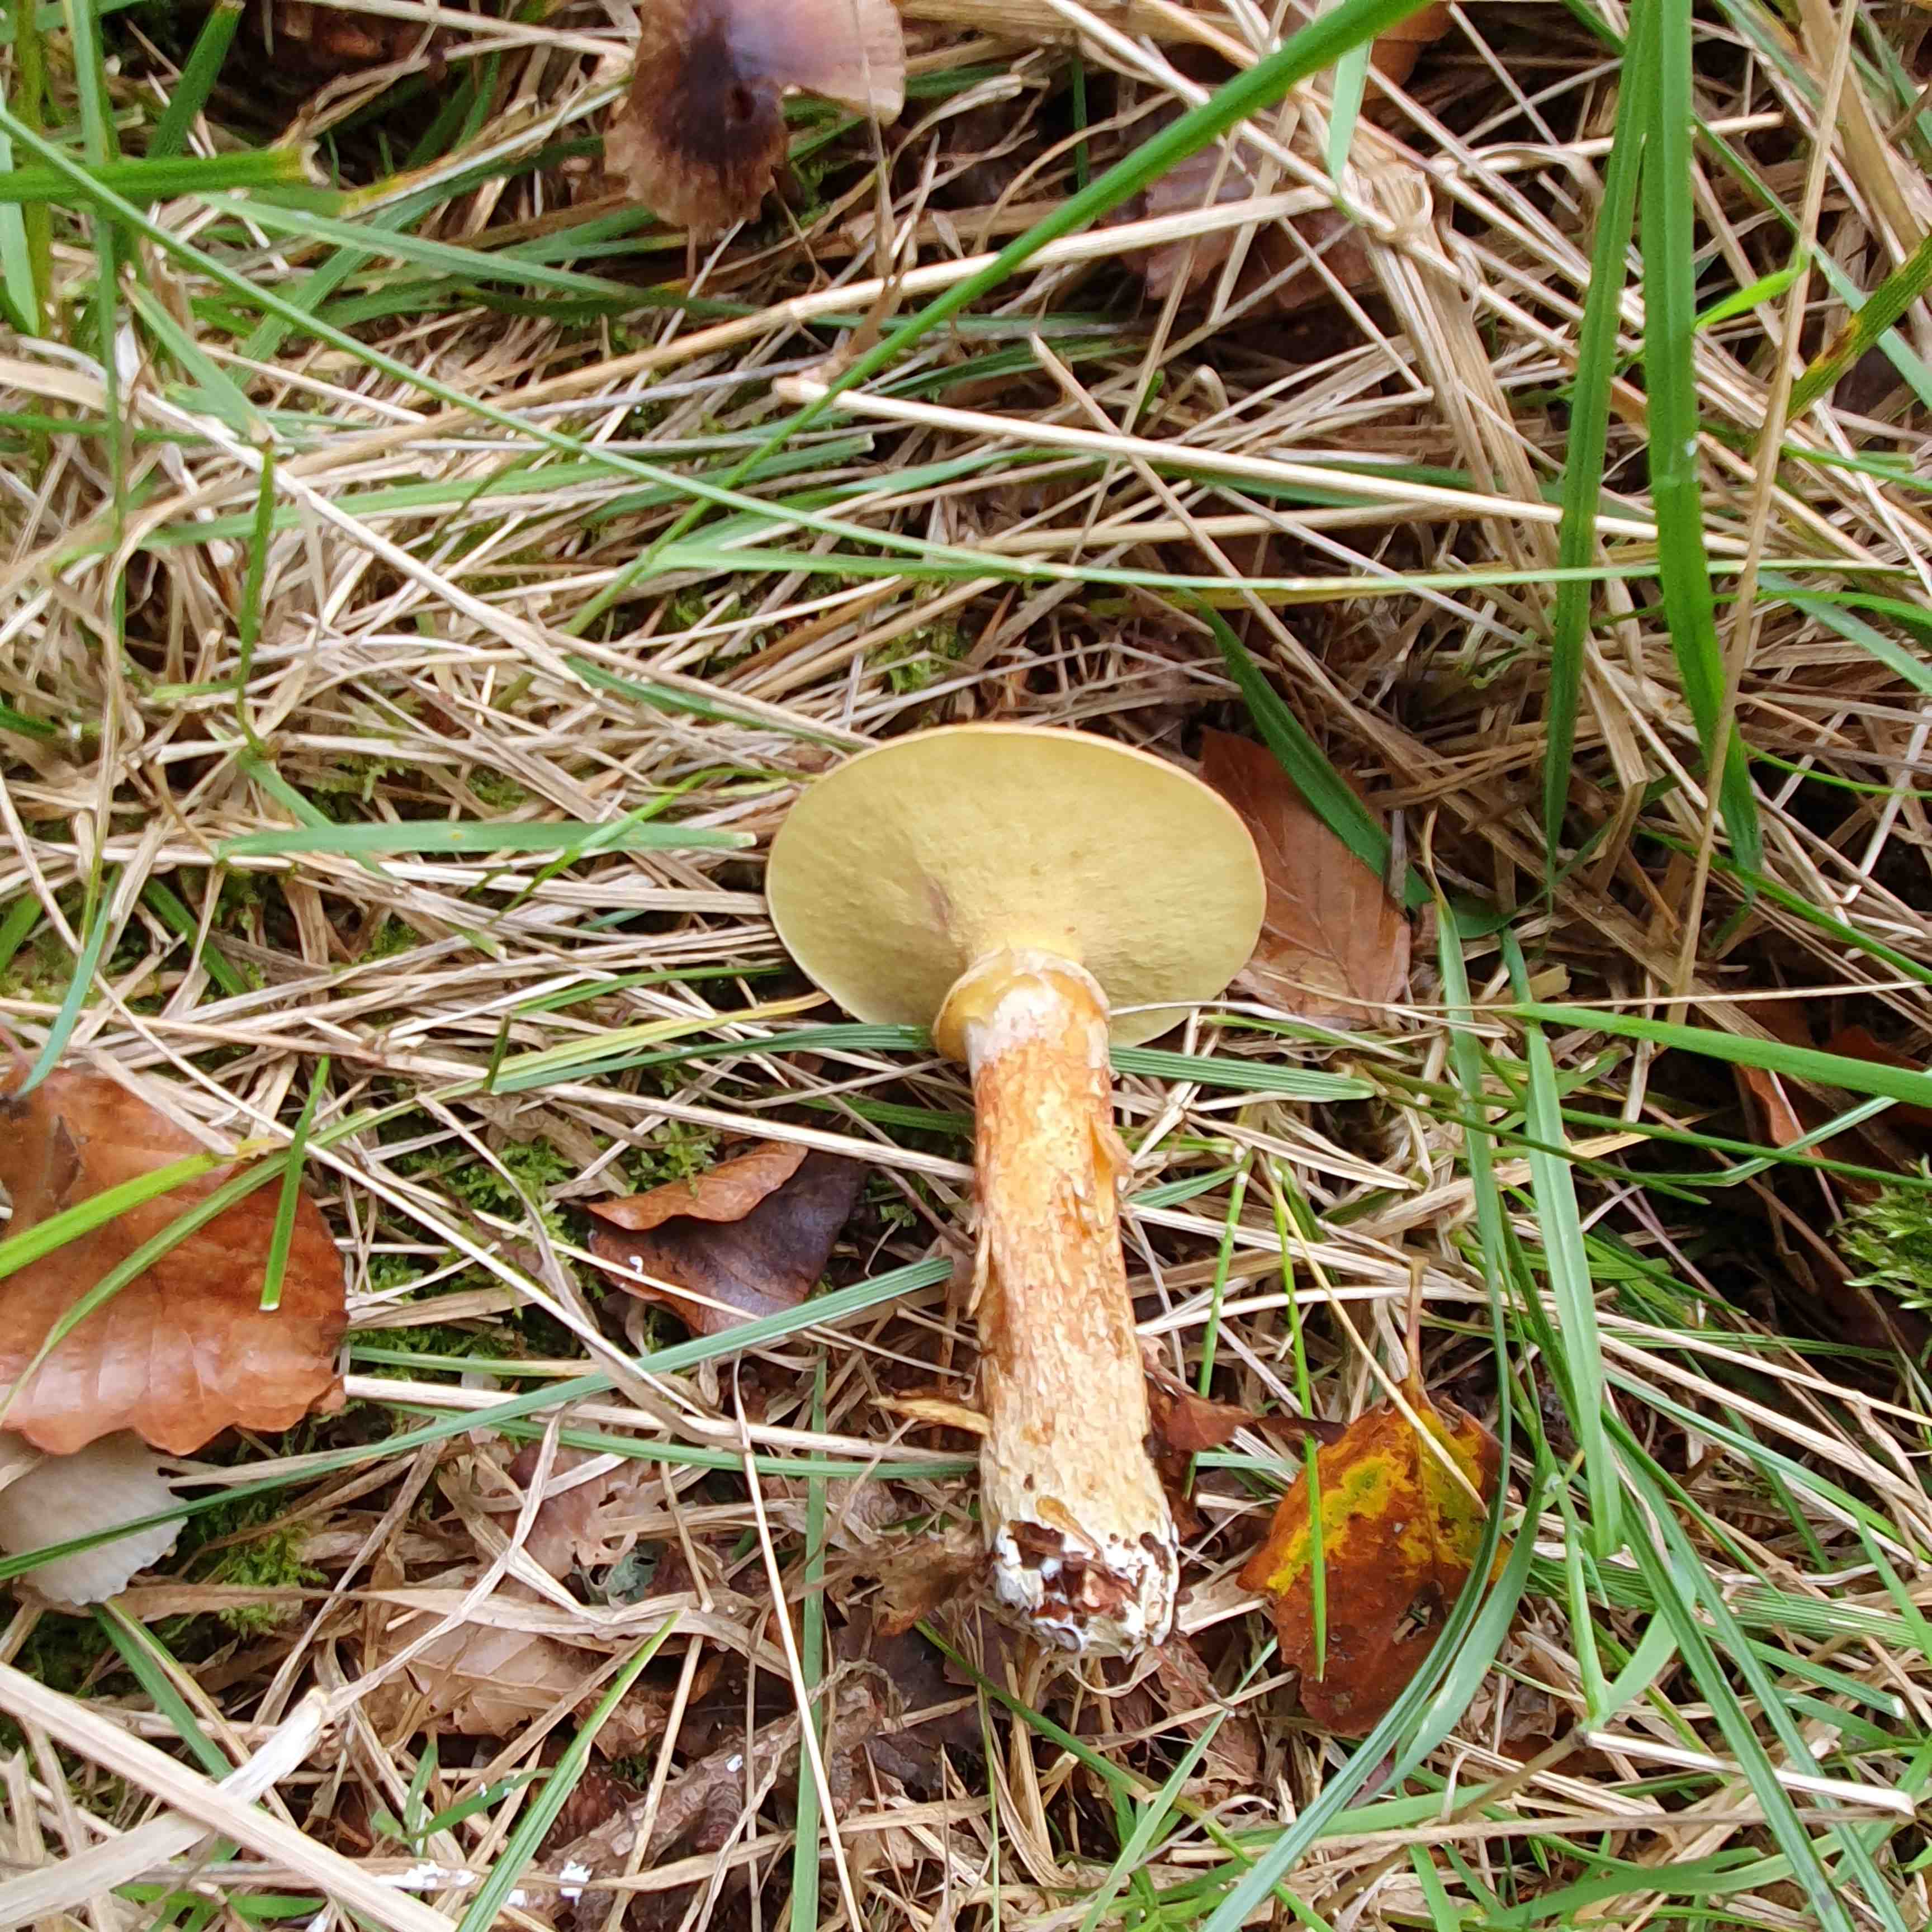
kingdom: Fungi
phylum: Basidiomycota
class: Agaricomycetes
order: Boletales
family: Suillaceae
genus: Suillus
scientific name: Suillus grevillei
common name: lærke-slimrørhat
